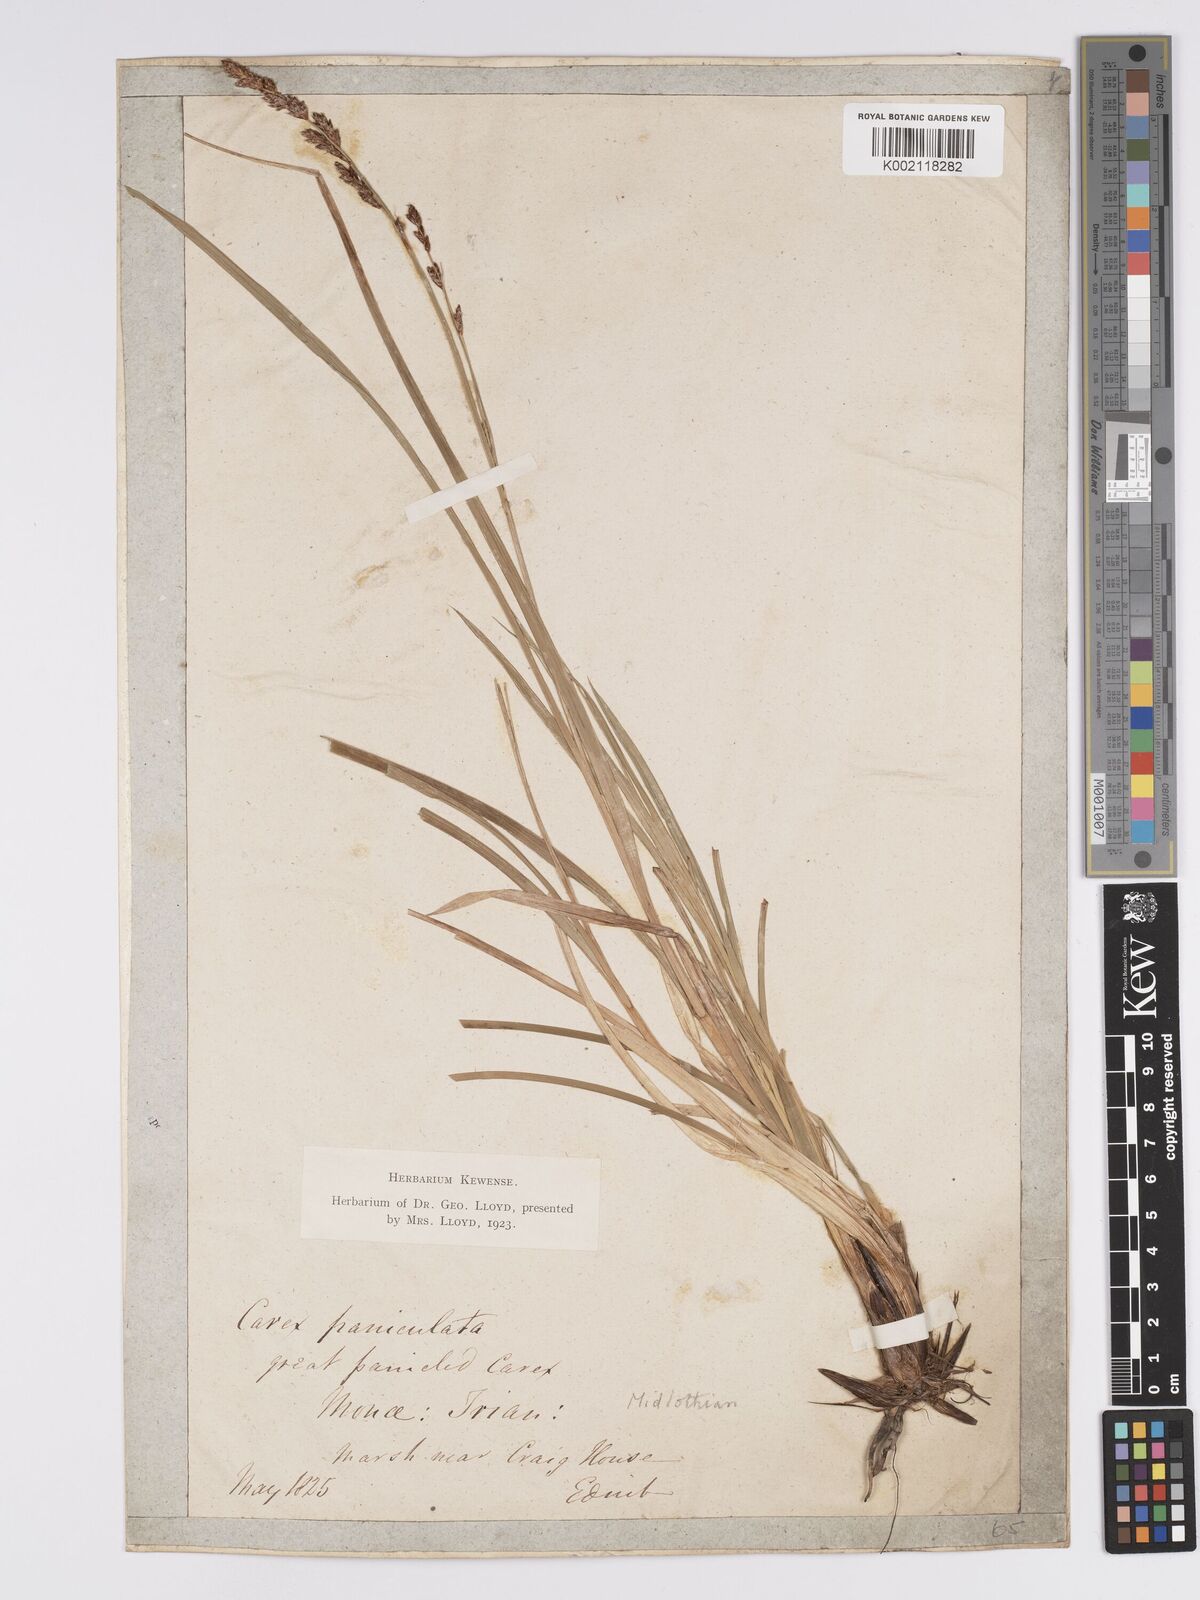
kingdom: Plantae
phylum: Tracheophyta
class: Liliopsida
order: Poales
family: Cyperaceae
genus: Carex
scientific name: Carex paniculata
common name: Greater tussock-sedge
